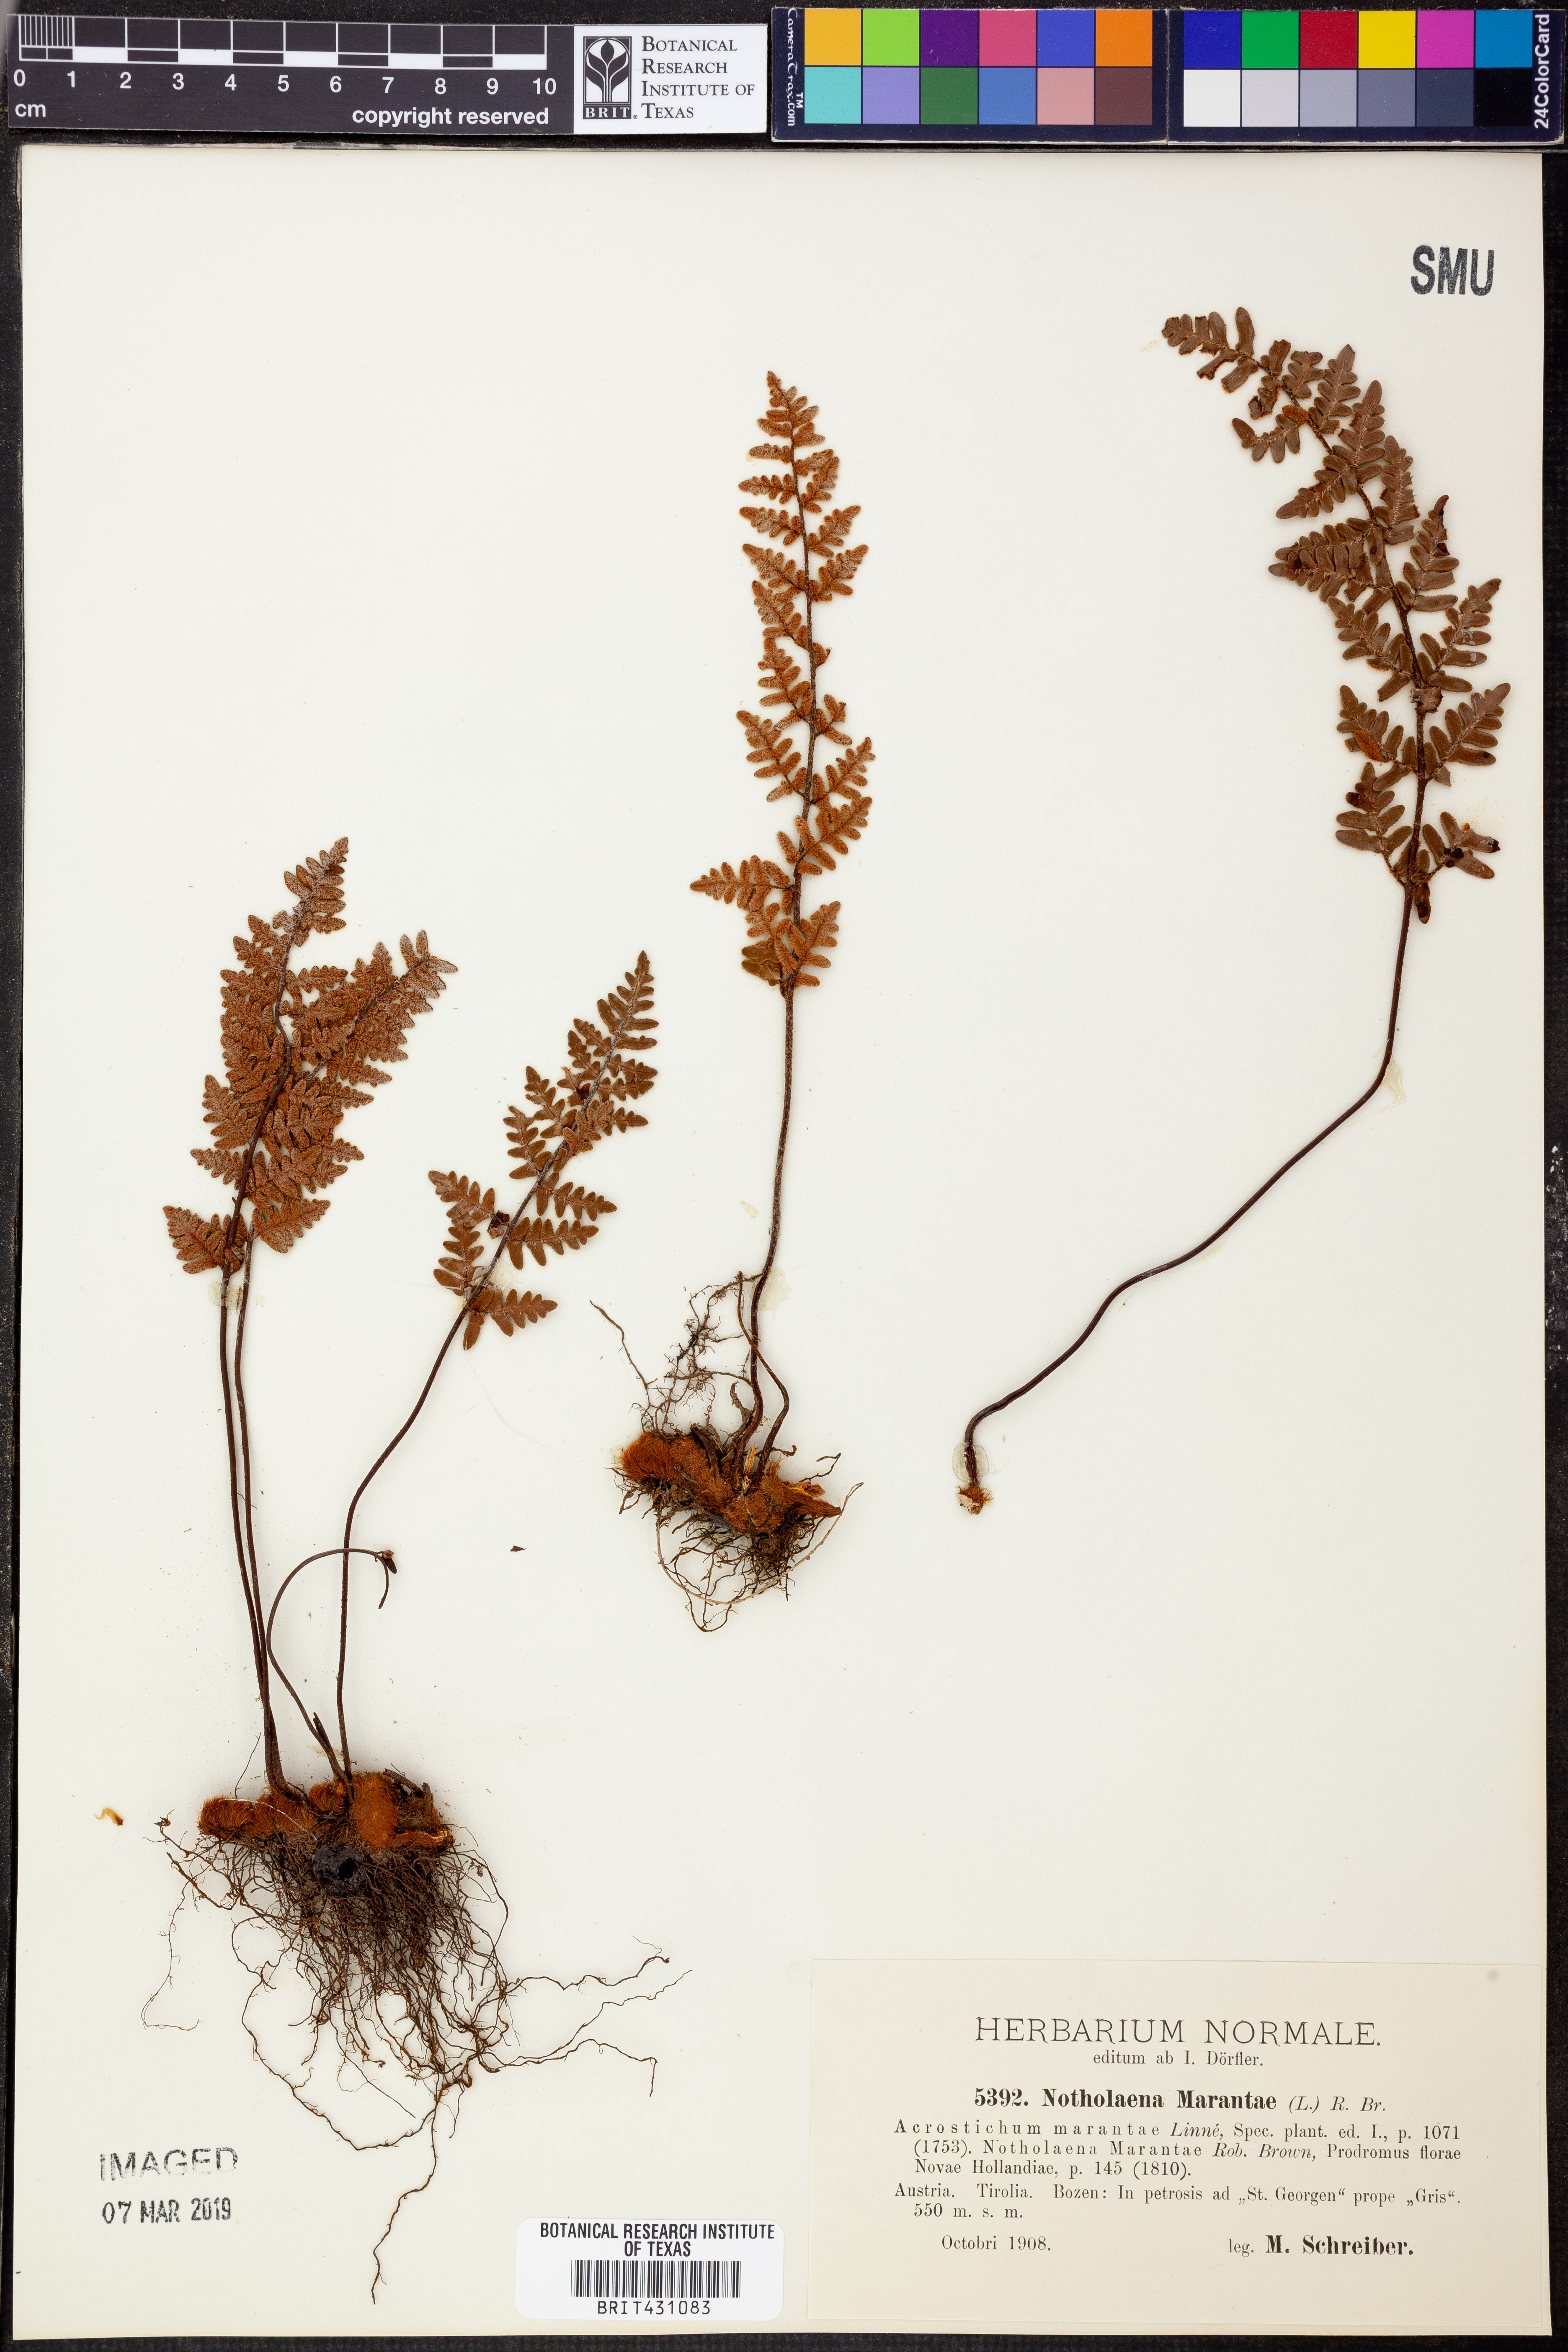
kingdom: Plantae
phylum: Tracheophyta
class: Polypodiopsida
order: Polypodiales
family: Pteridaceae
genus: Paragymnopteris
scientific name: Paragymnopteris marantae
